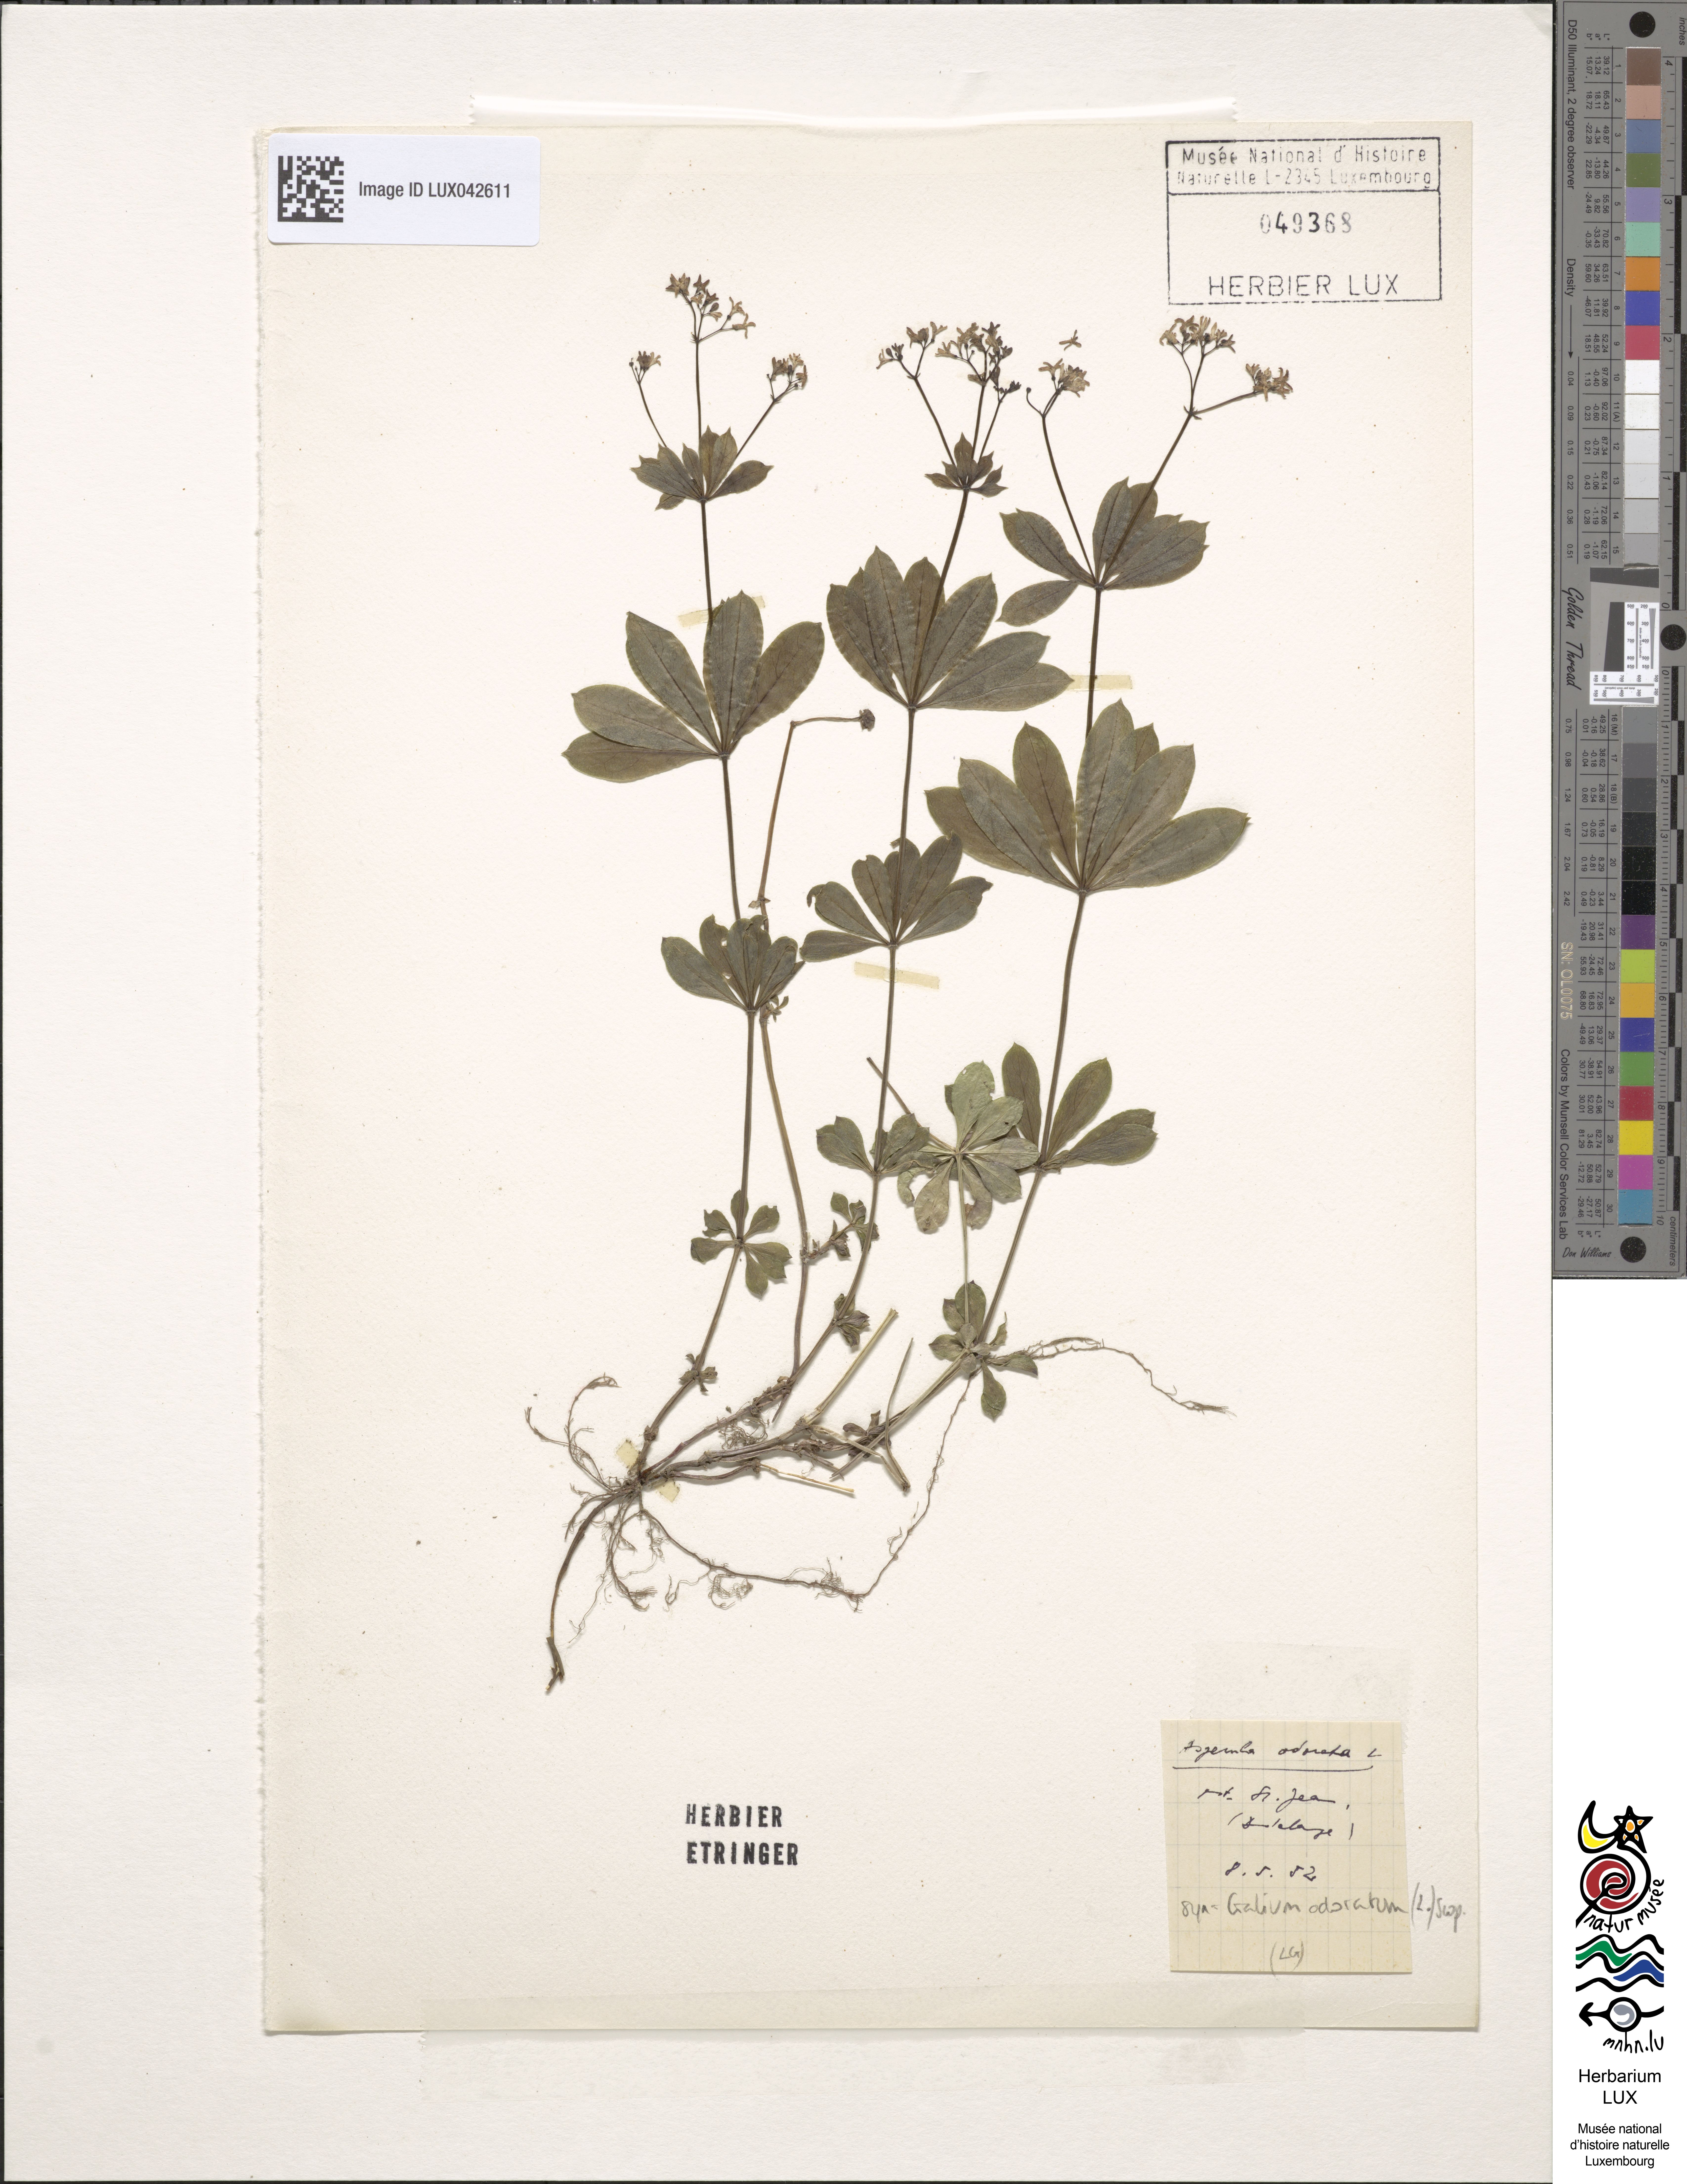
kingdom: Plantae
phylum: Tracheophyta
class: Magnoliopsida
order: Gentianales
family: Rubiaceae
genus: Galium
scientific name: Galium odoratum
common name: Sweet woodruff
